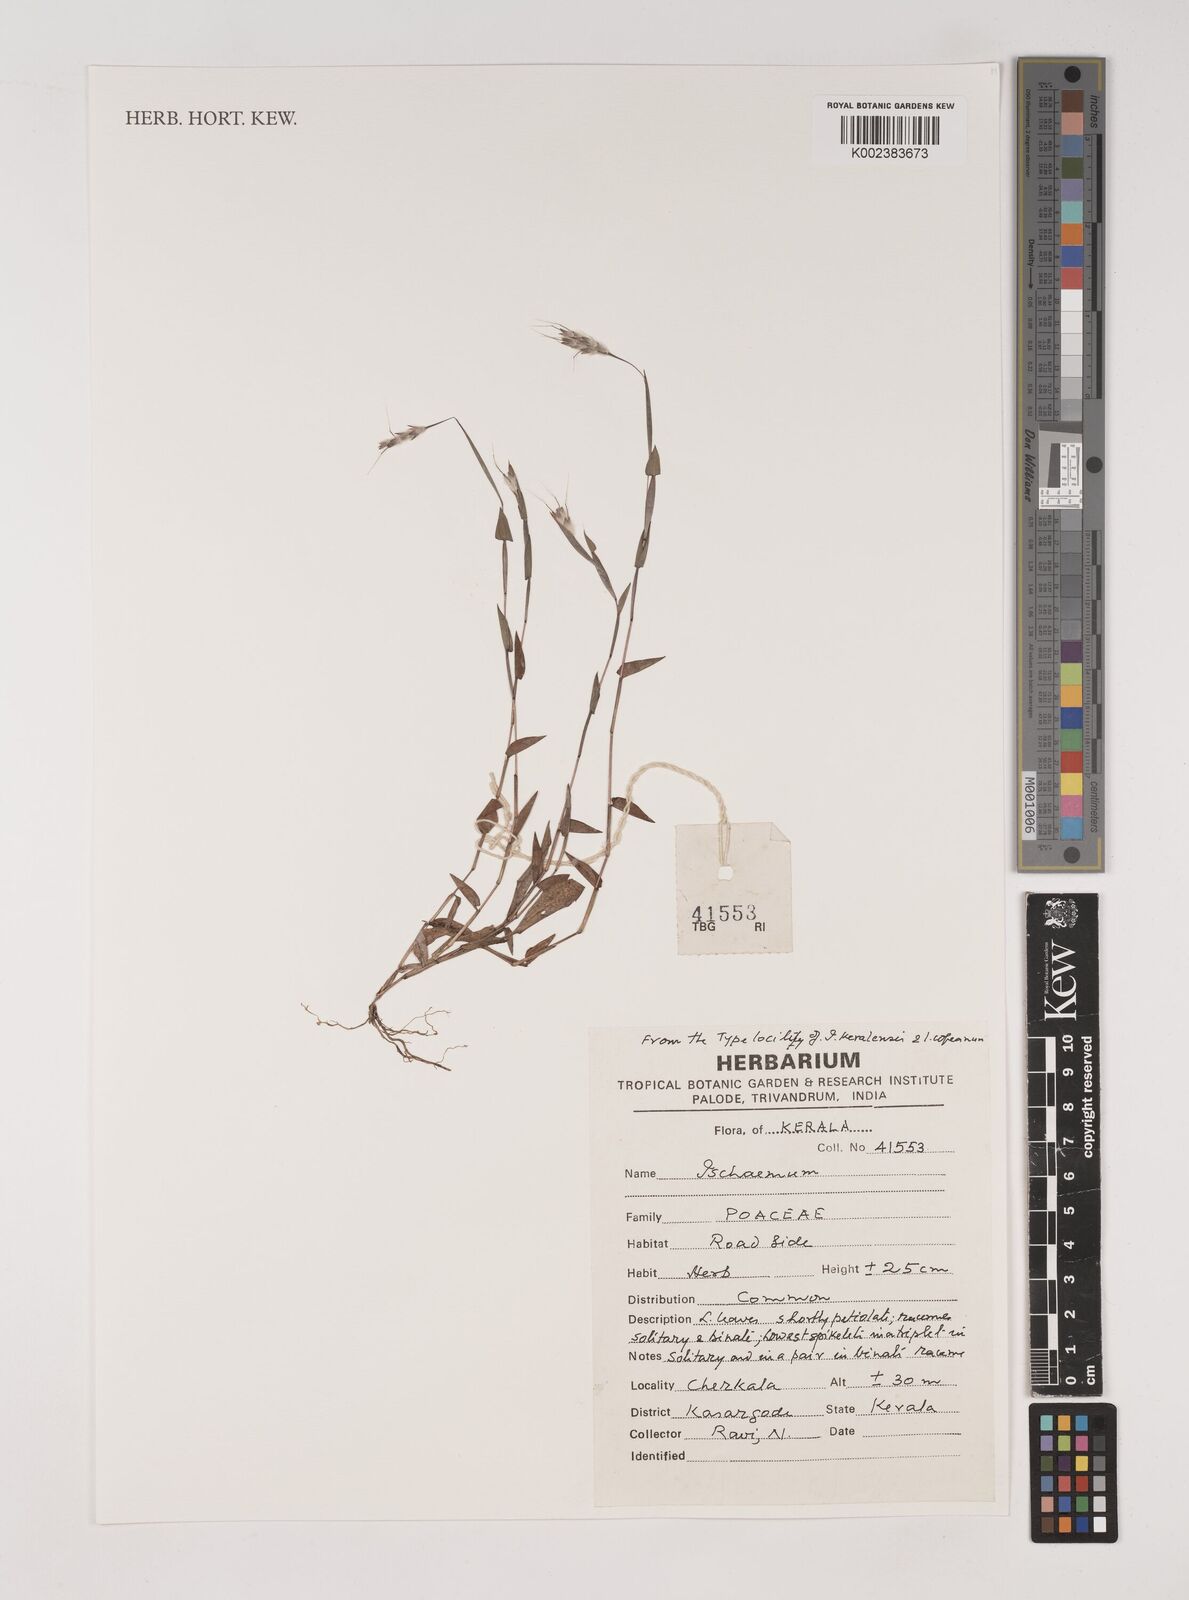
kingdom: Plantae
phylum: Tracheophyta
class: Liliopsida
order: Poales
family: Poaceae
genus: Ischaemum
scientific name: Ischaemum
